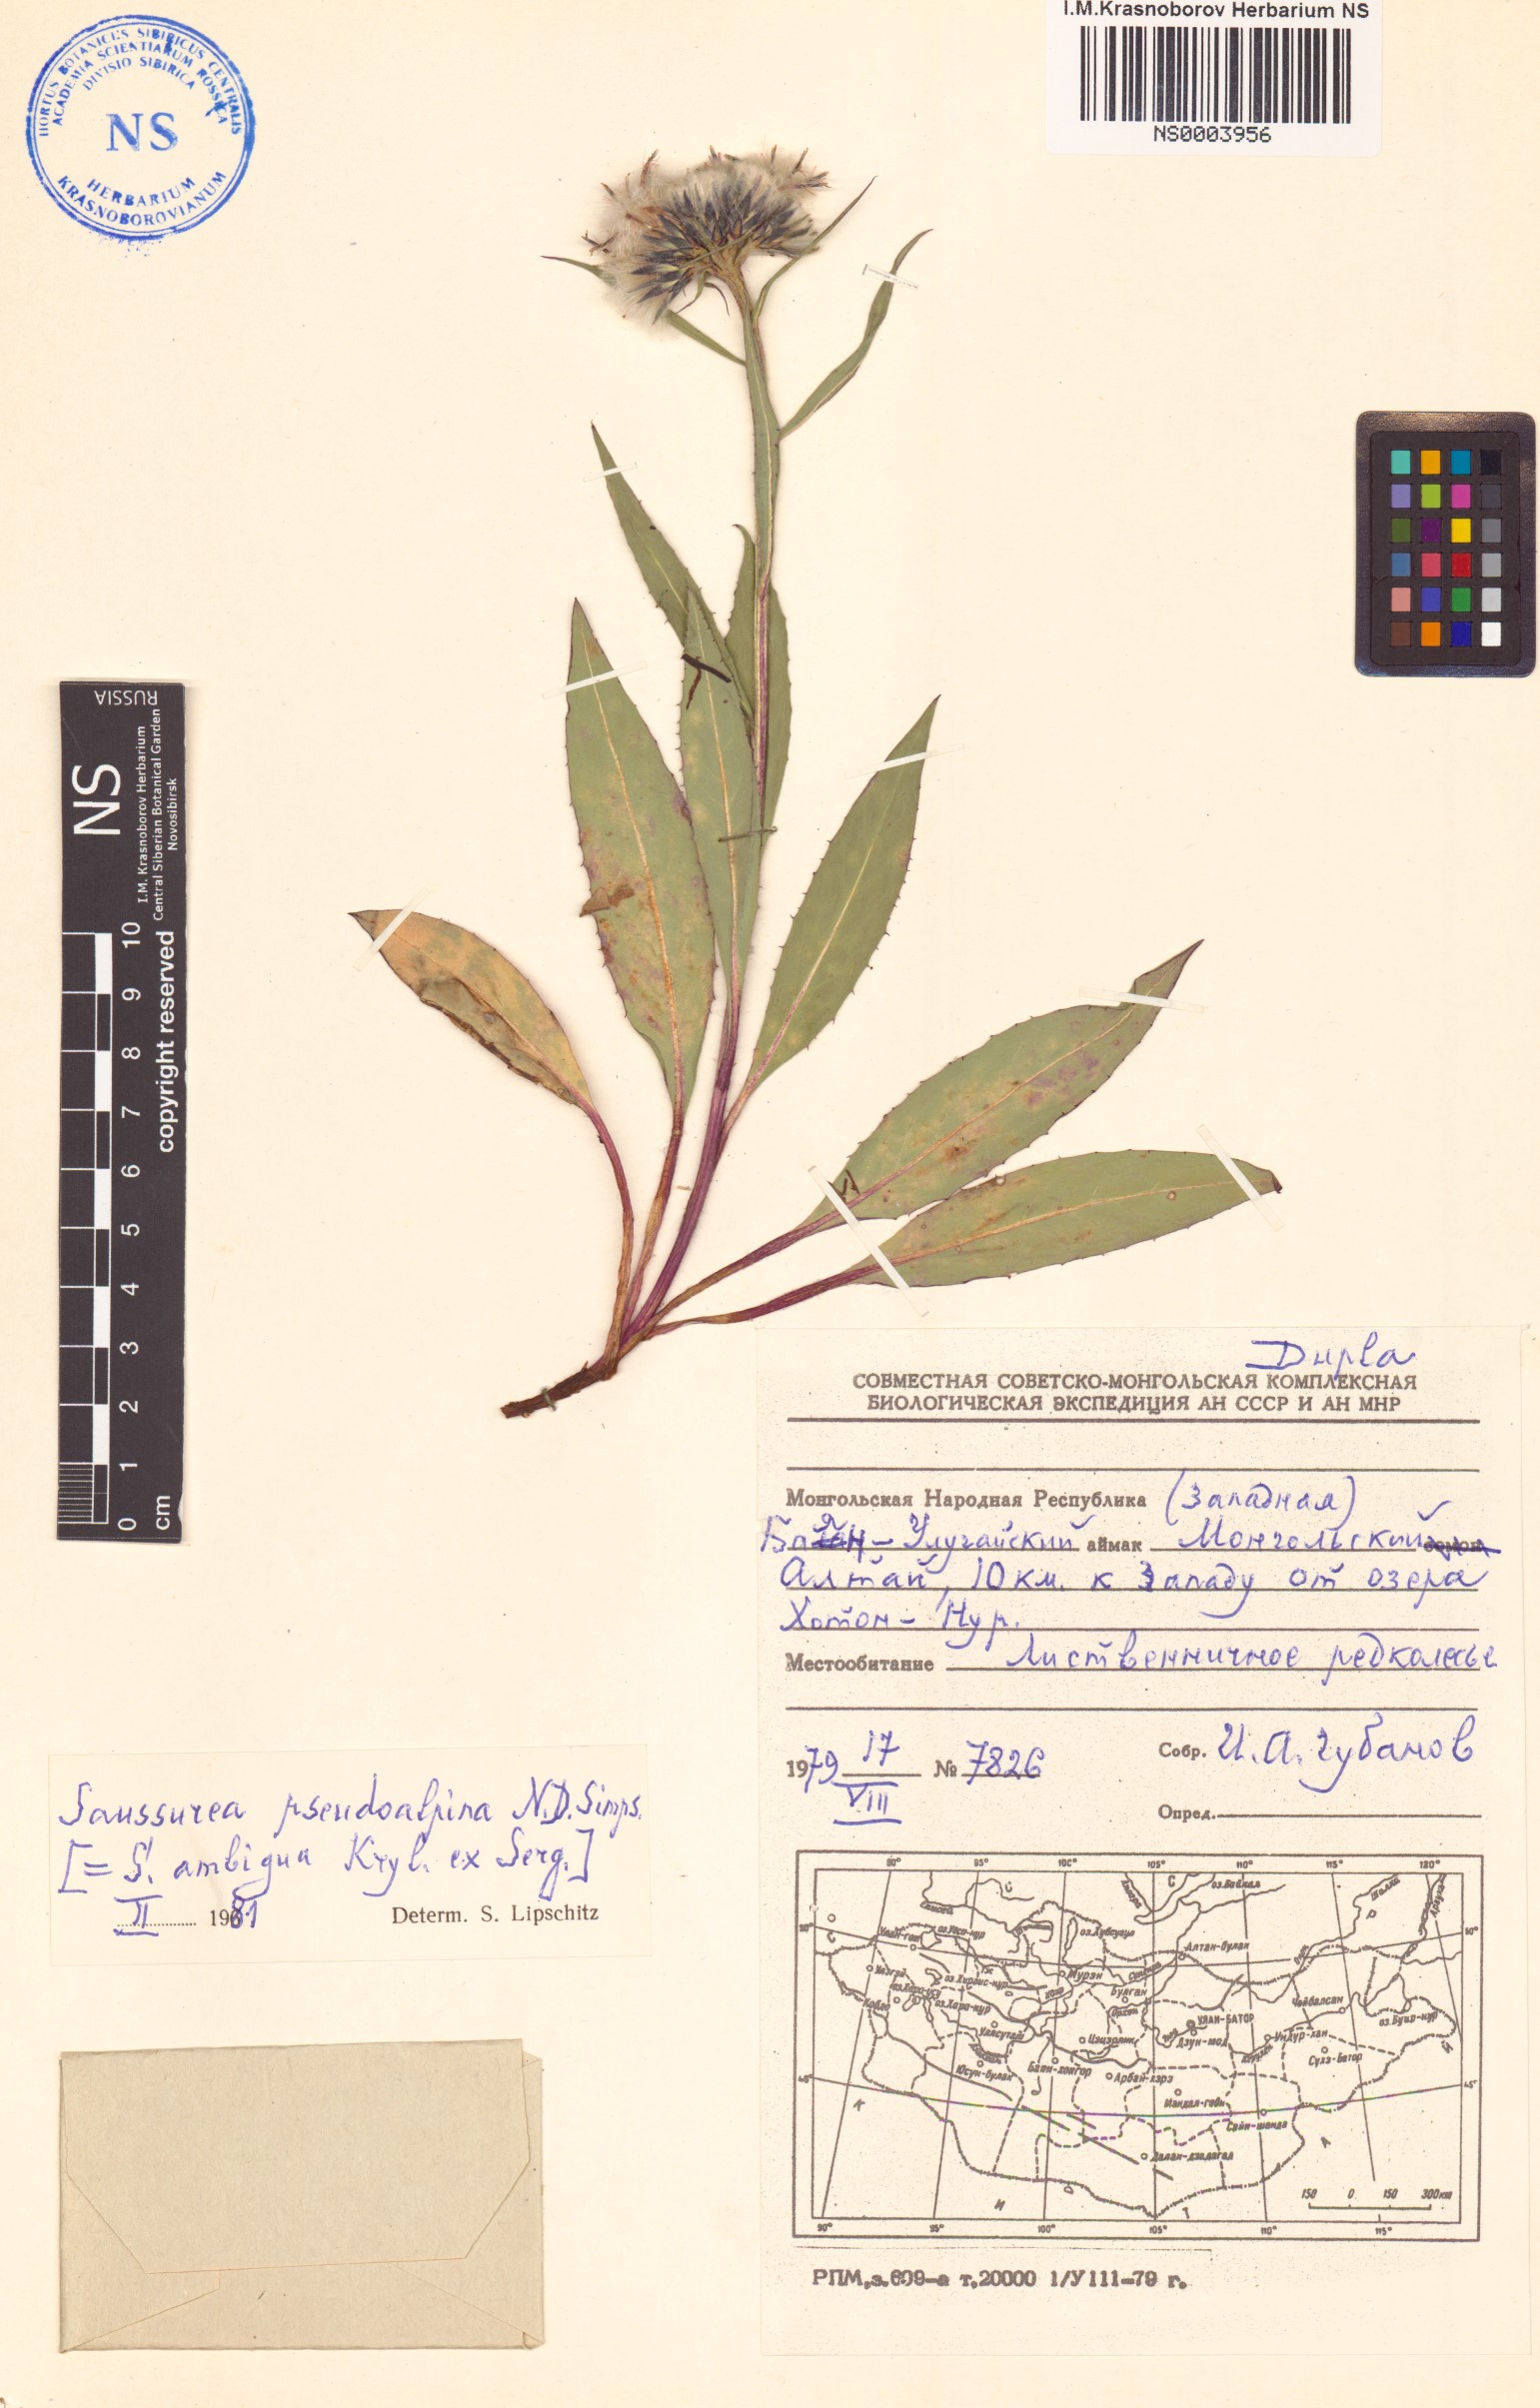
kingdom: Plantae
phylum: Tracheophyta
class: Magnoliopsida
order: Asterales
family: Asteraceae
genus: Saussurea
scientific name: Saussurea pseudoalpina
